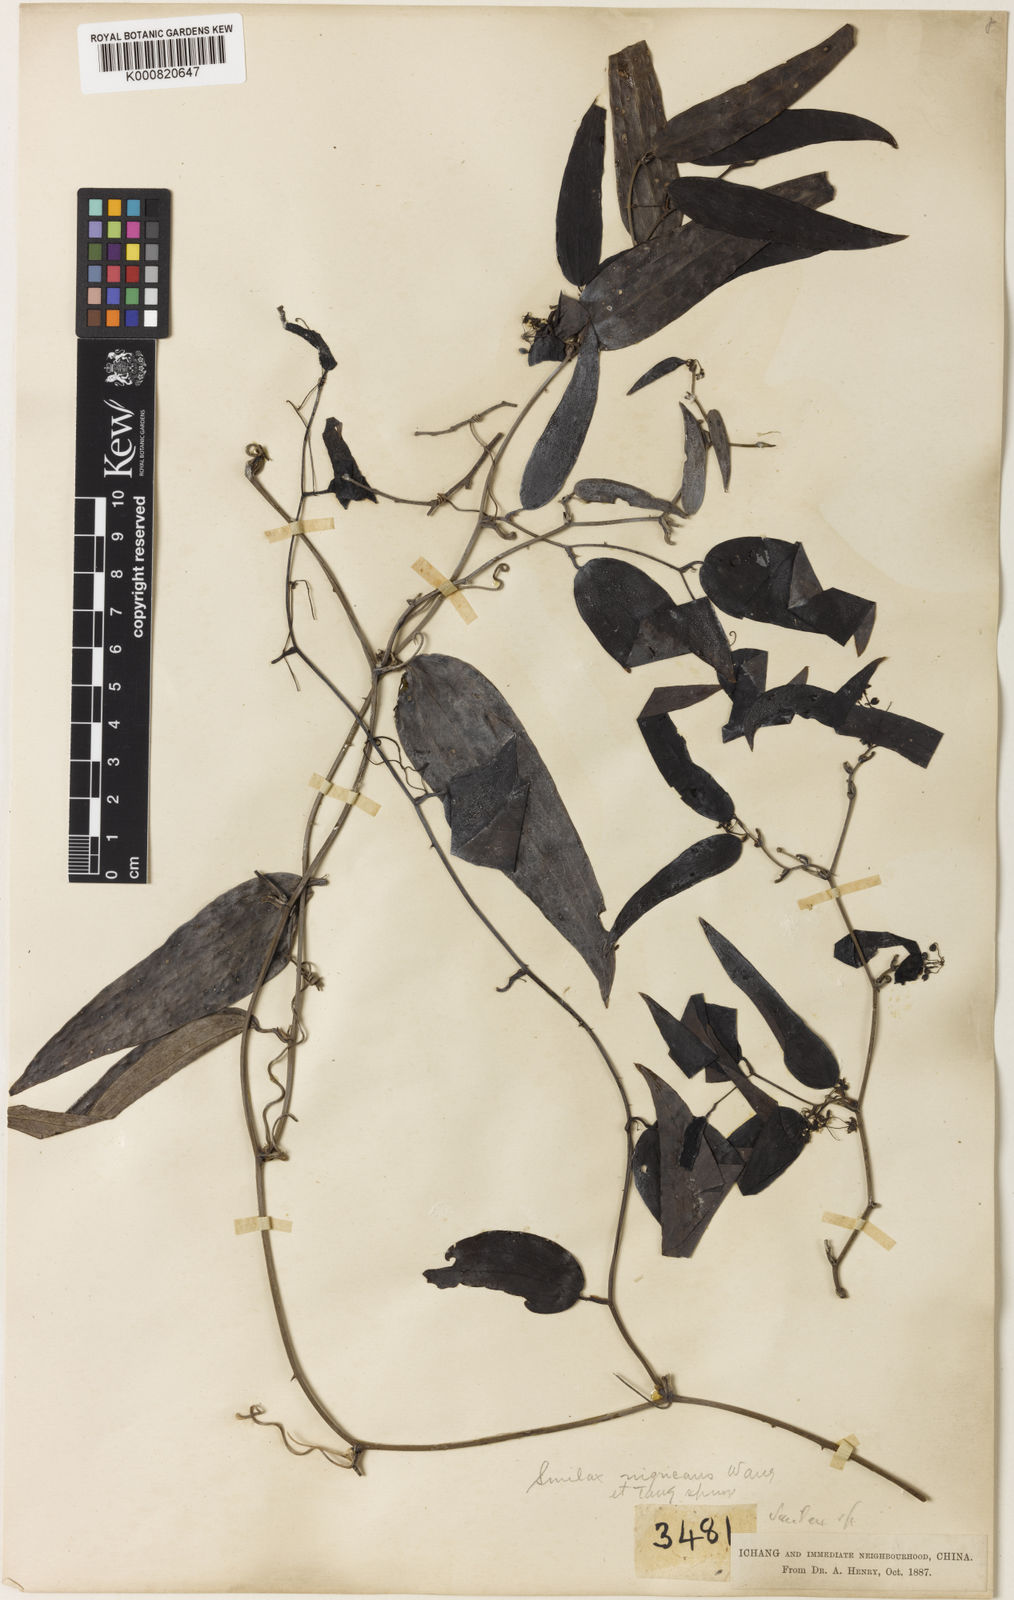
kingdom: Plantae
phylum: Tracheophyta
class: Liliopsida
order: Liliales
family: Smilacaceae
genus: Smilax
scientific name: Smilax
